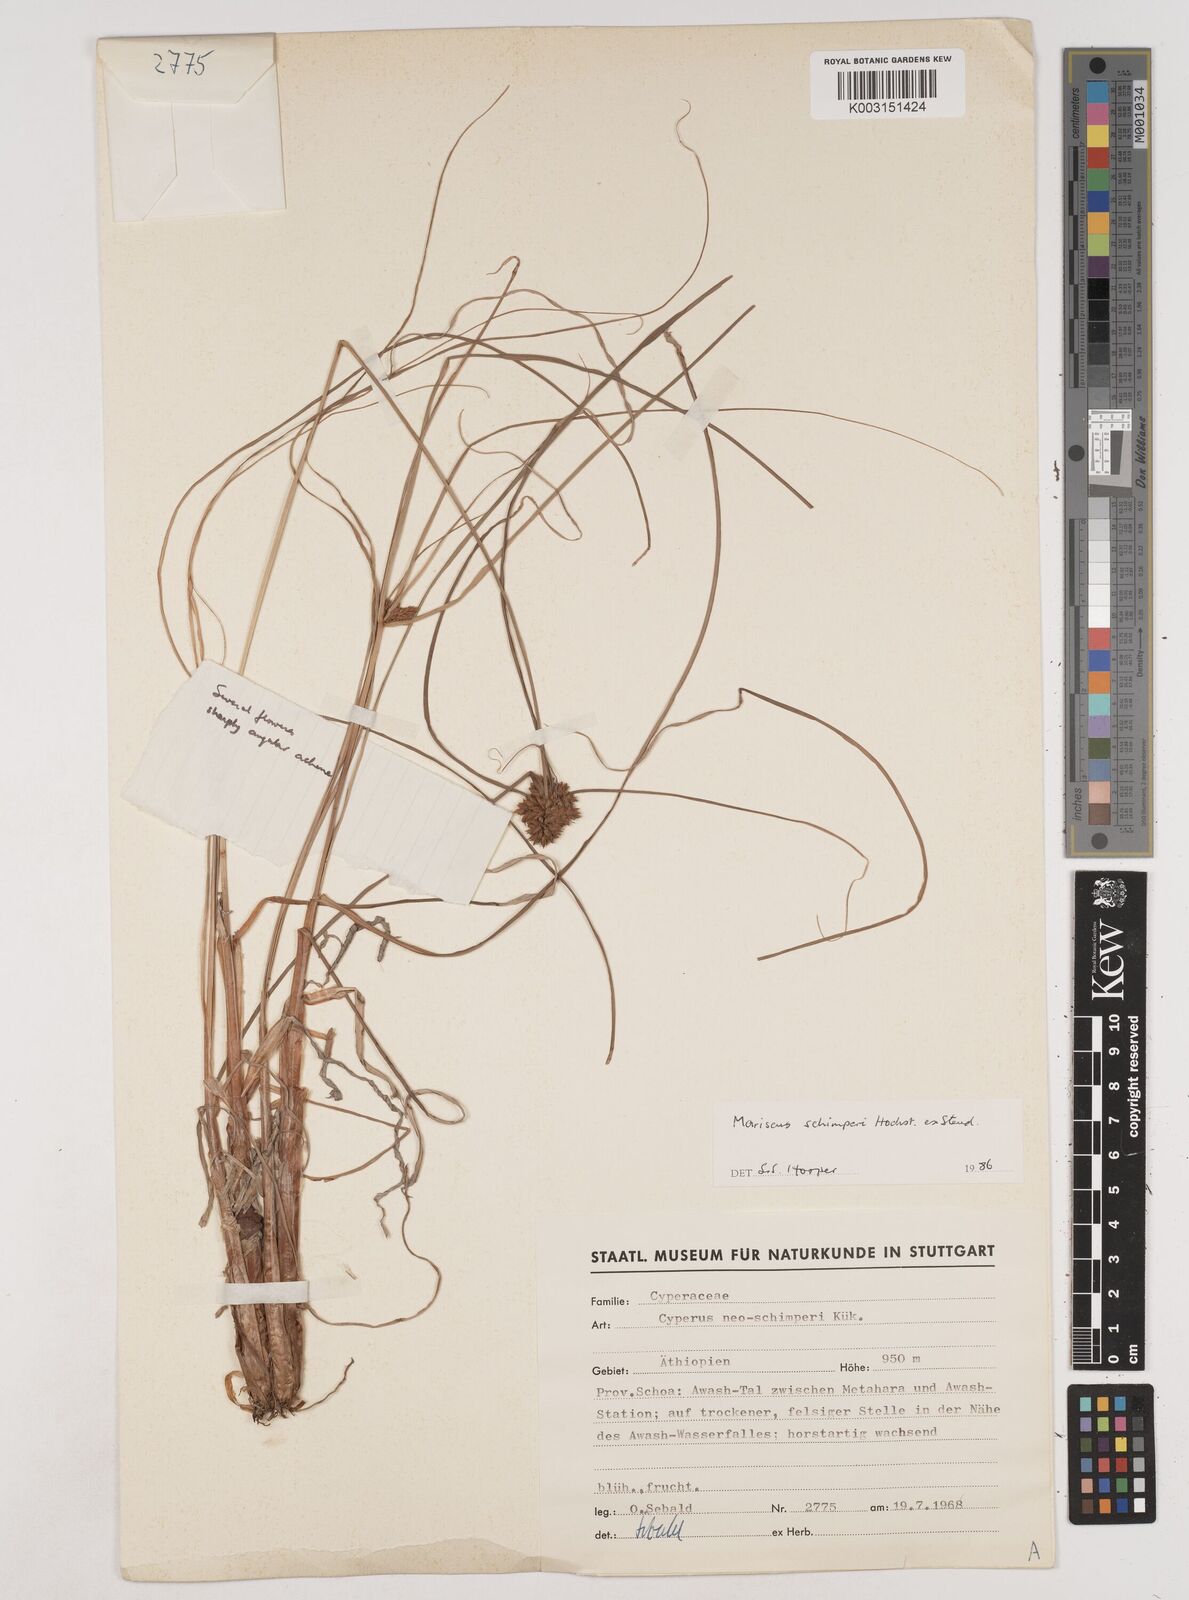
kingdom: Plantae
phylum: Tracheophyta
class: Liliopsida
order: Poales
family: Cyperaceae
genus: Cyperus
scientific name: Cyperus schimperianus
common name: Schimper flatsedge
